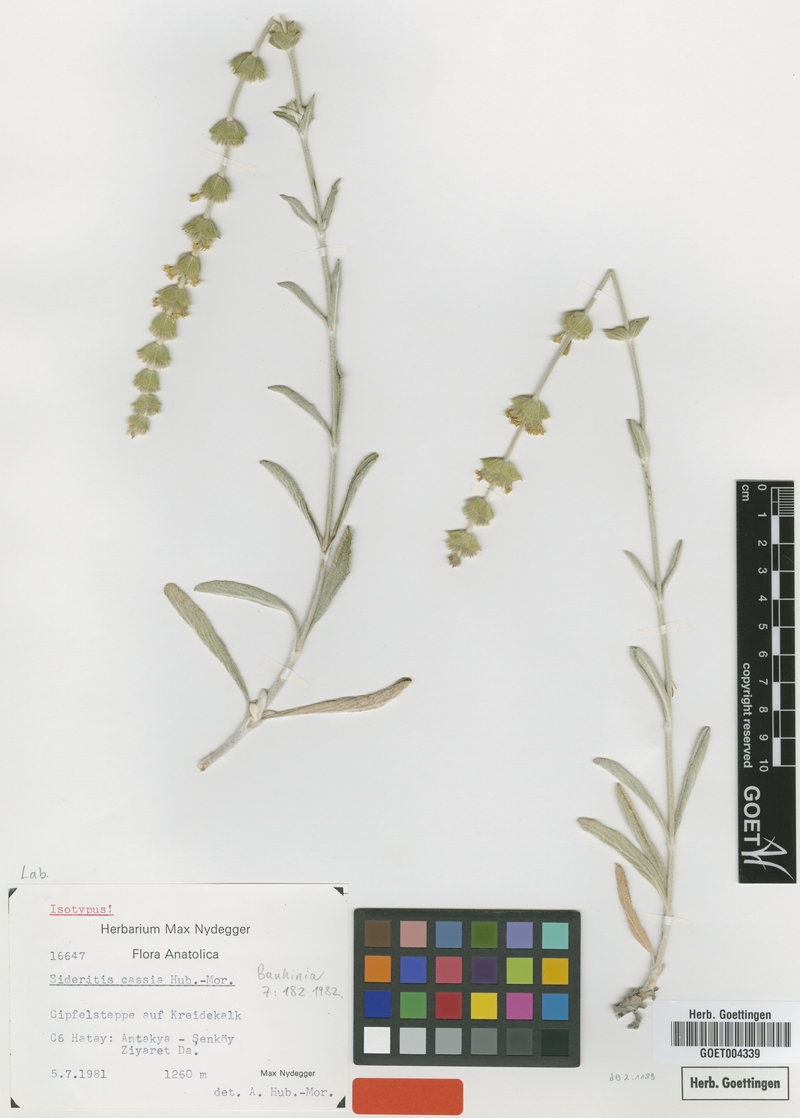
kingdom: Plantae
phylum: Tracheophyta
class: Magnoliopsida
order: Lamiales
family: Lamiaceae
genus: Sideritis
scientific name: Sideritis huber-morathii
